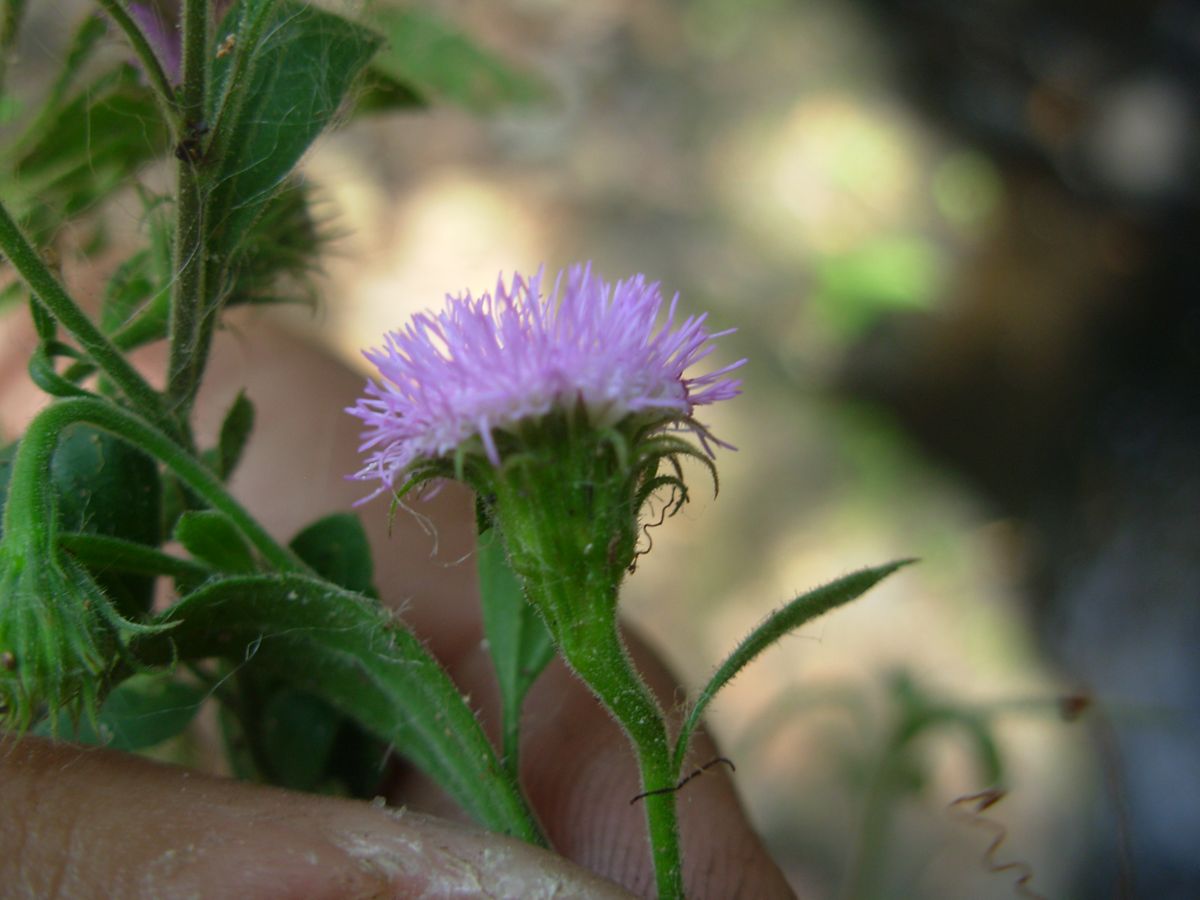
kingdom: Plantae
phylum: Tracheophyta
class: Magnoliopsida
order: Asterales
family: Asteraceae
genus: Fleischmannia
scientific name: Fleischmannia arguta
